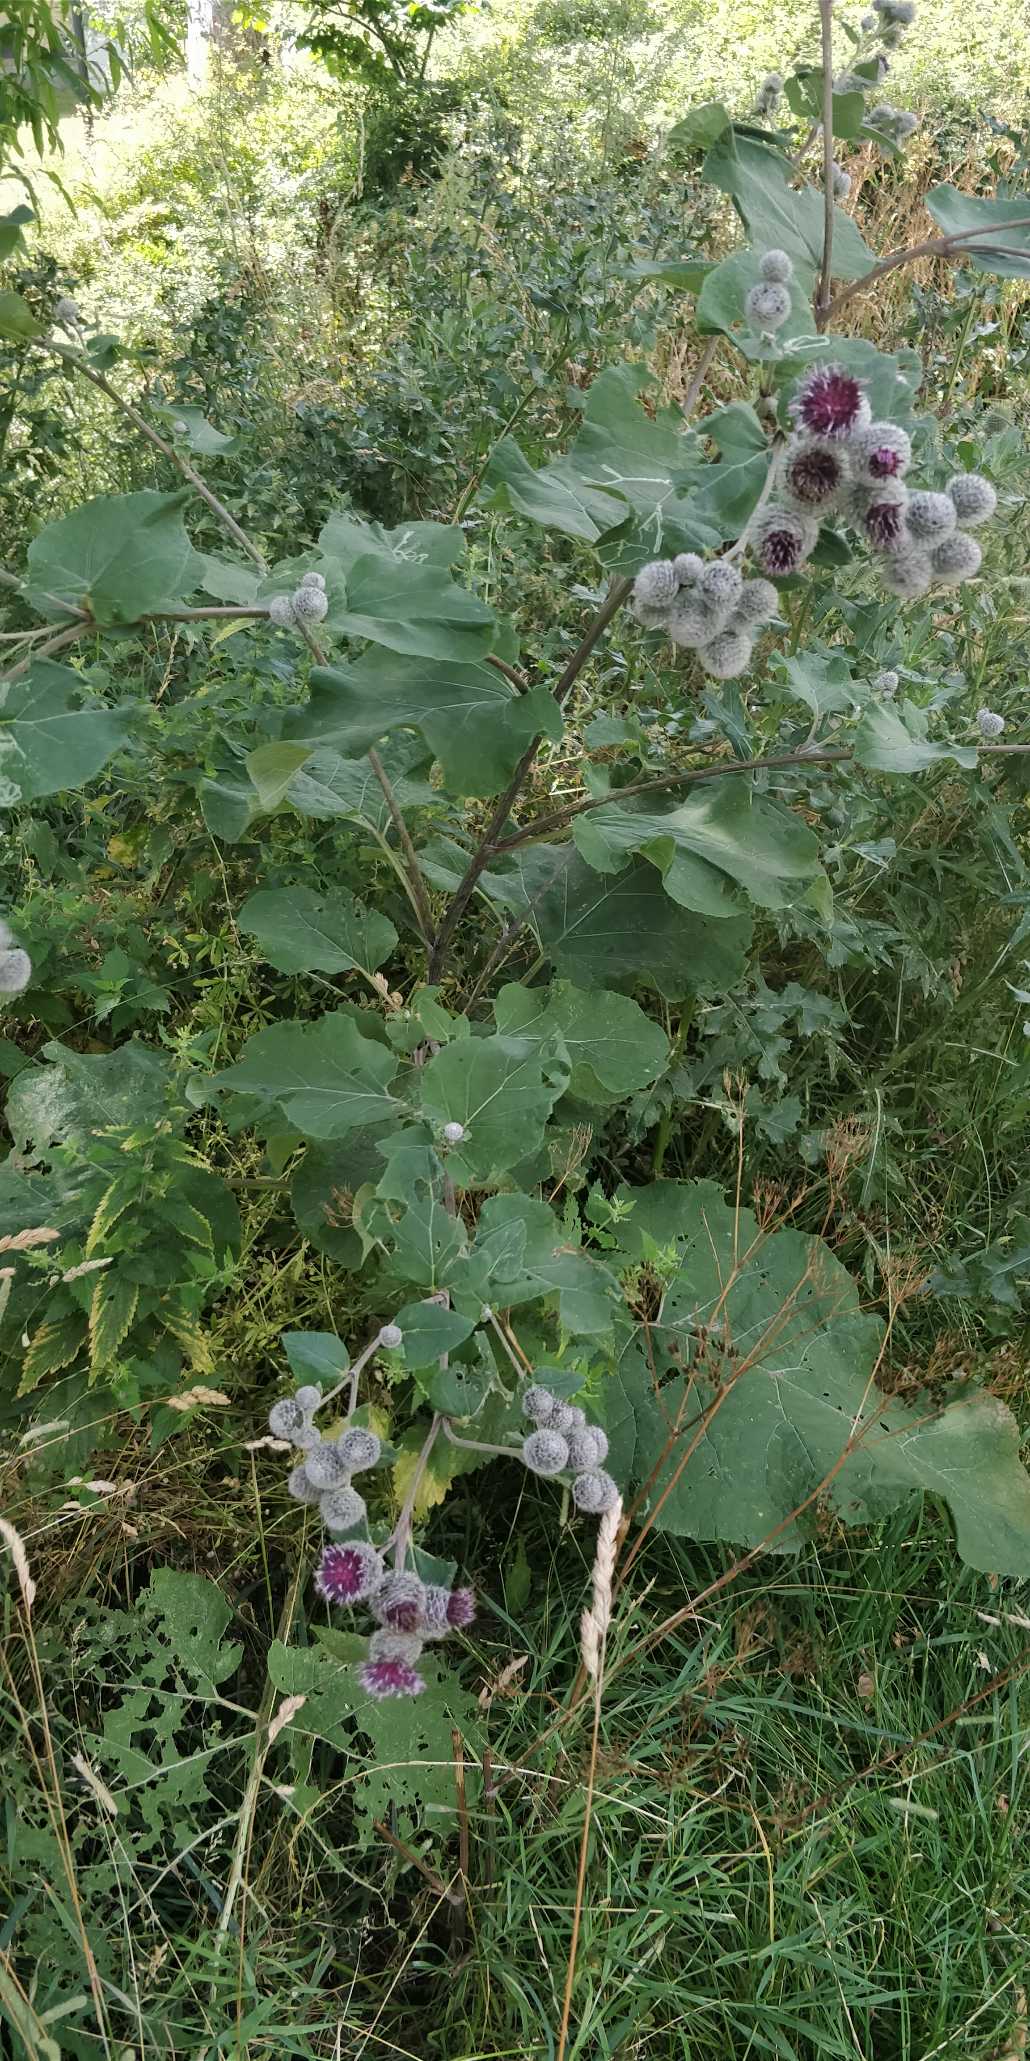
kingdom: Plantae
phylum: Tracheophyta
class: Magnoliopsida
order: Asterales
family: Asteraceae
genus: Arctium
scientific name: Arctium tomentosum
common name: Filtet burre
